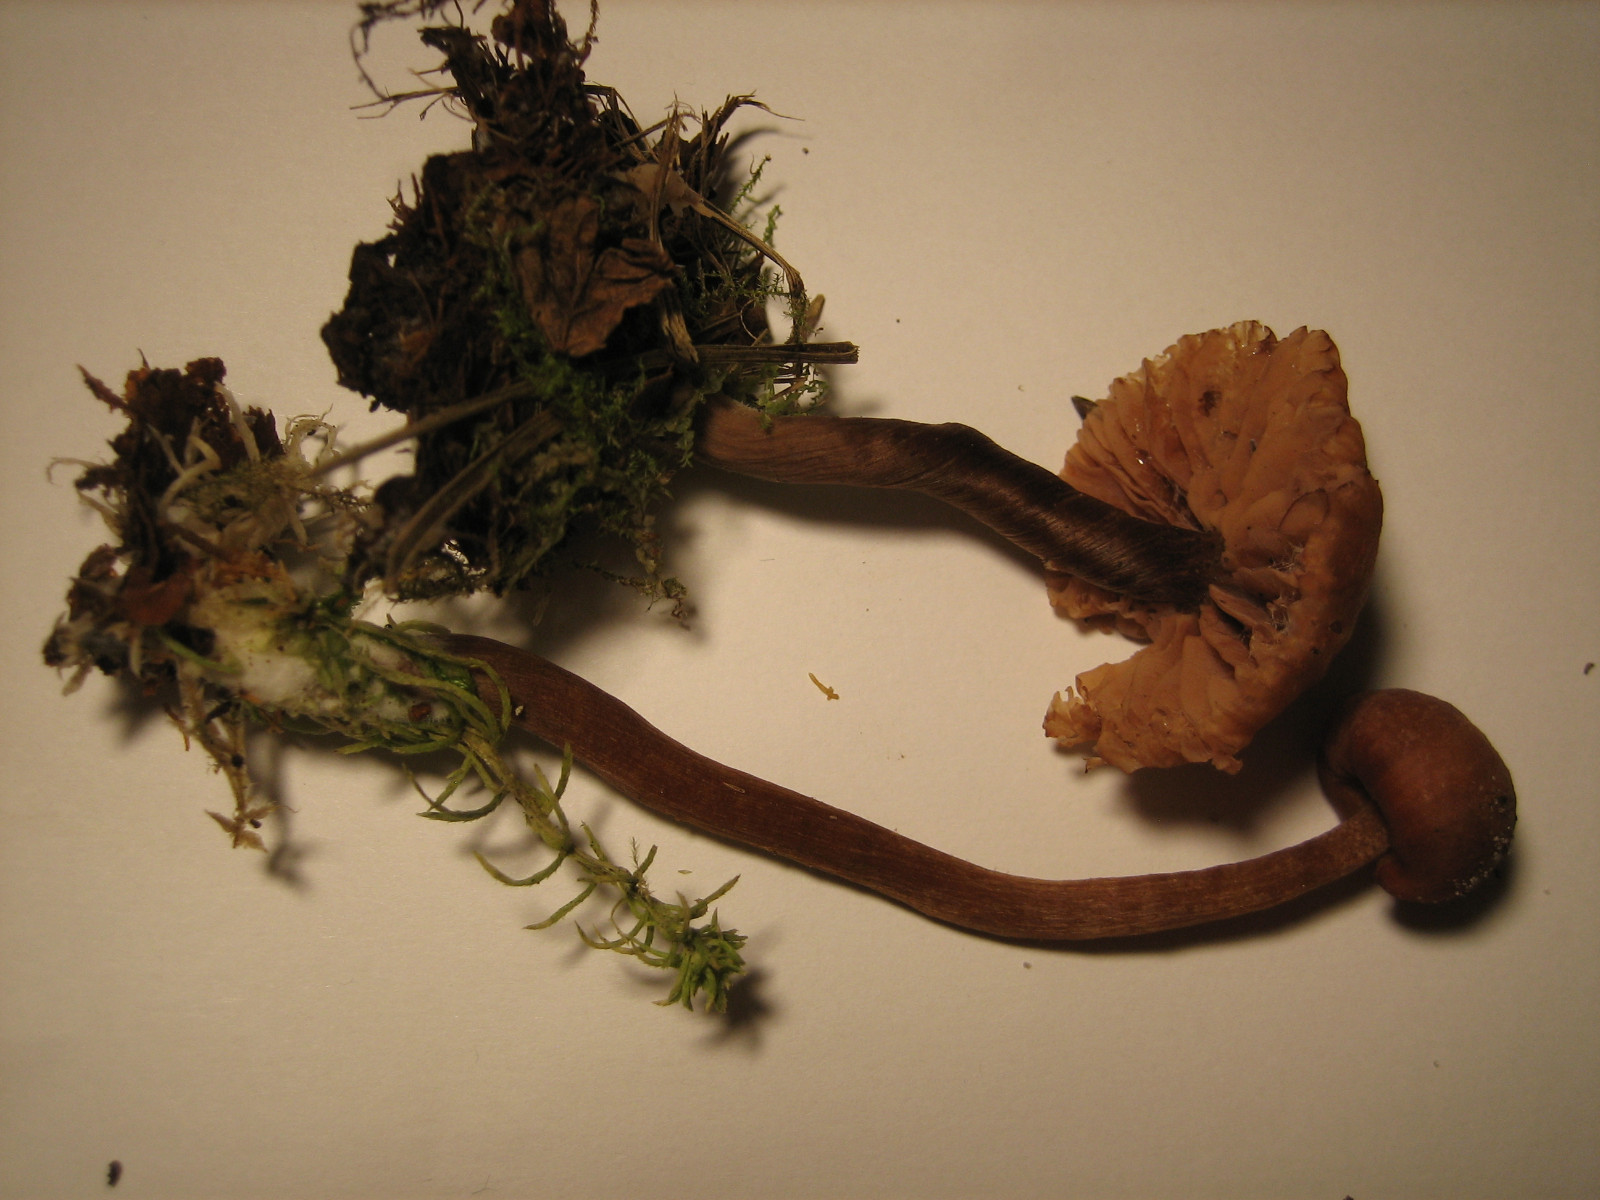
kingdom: Fungi
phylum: Basidiomycota
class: Agaricomycetes
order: Agaricales
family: Hydnangiaceae
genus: Laccaria
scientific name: Laccaria laccata
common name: rød ametysthat
